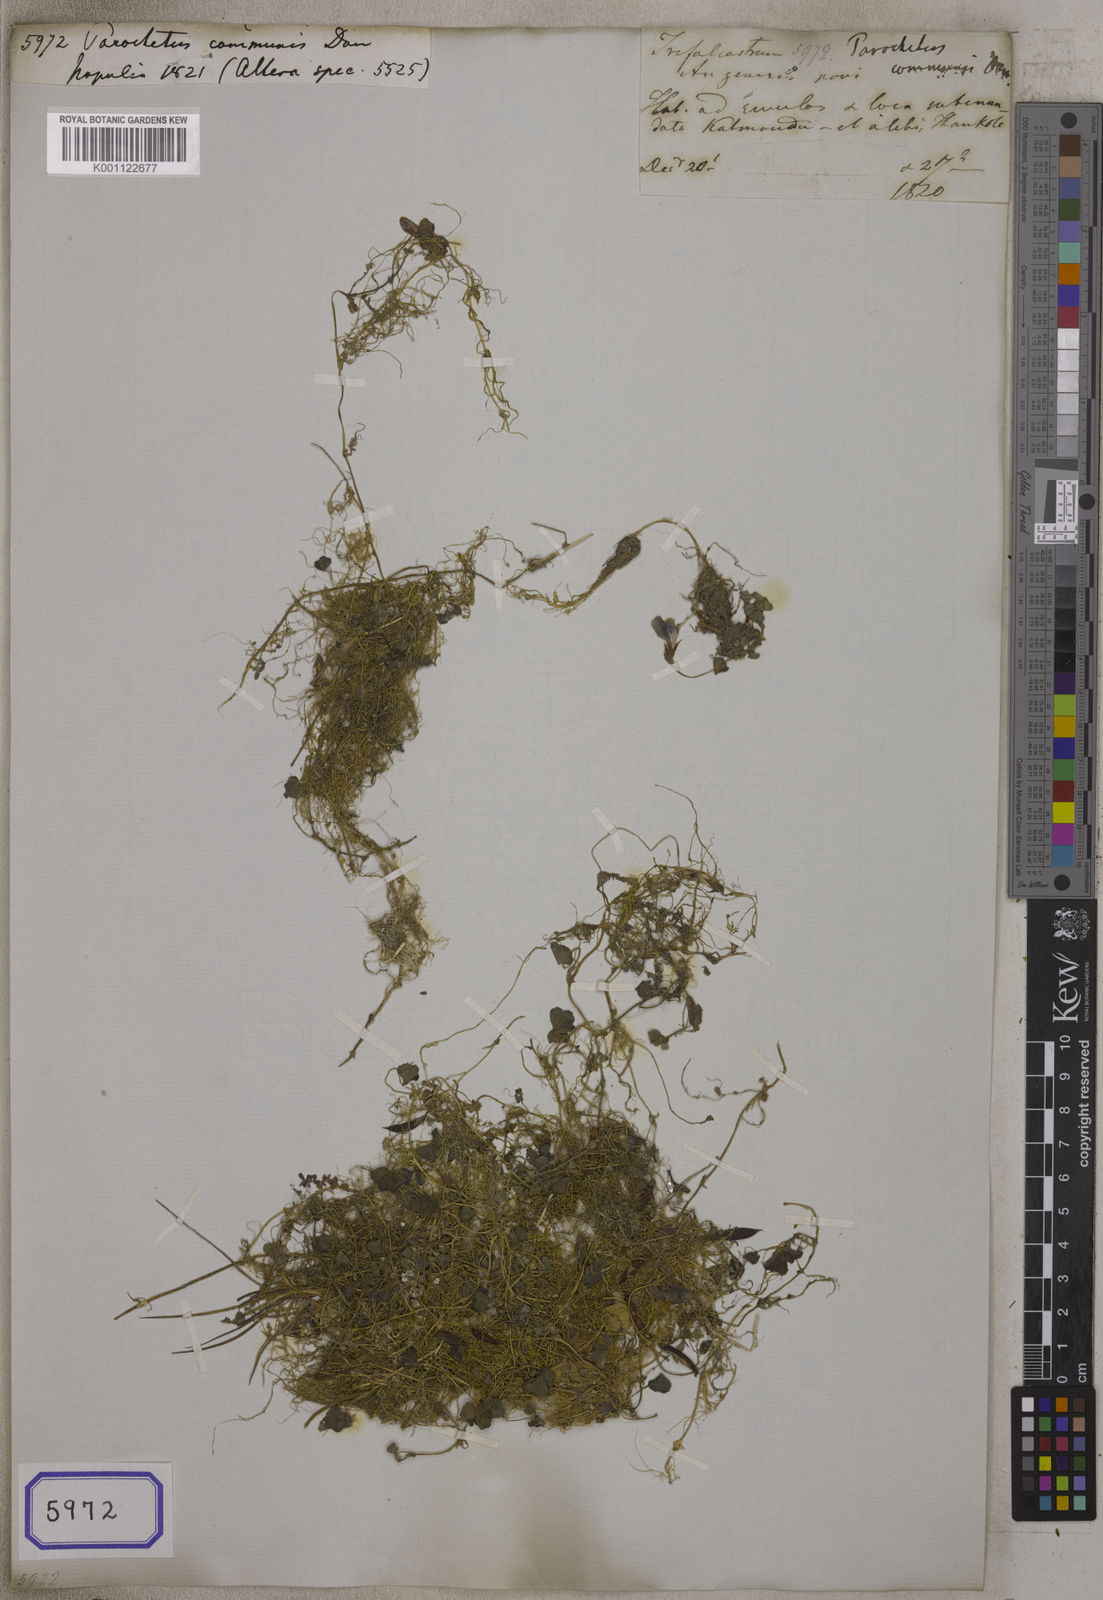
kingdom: Plantae
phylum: Tracheophyta
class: Magnoliopsida
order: Fabales
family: Fabaceae
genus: Parochetus
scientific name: Parochetus communis
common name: Blue oxalis
